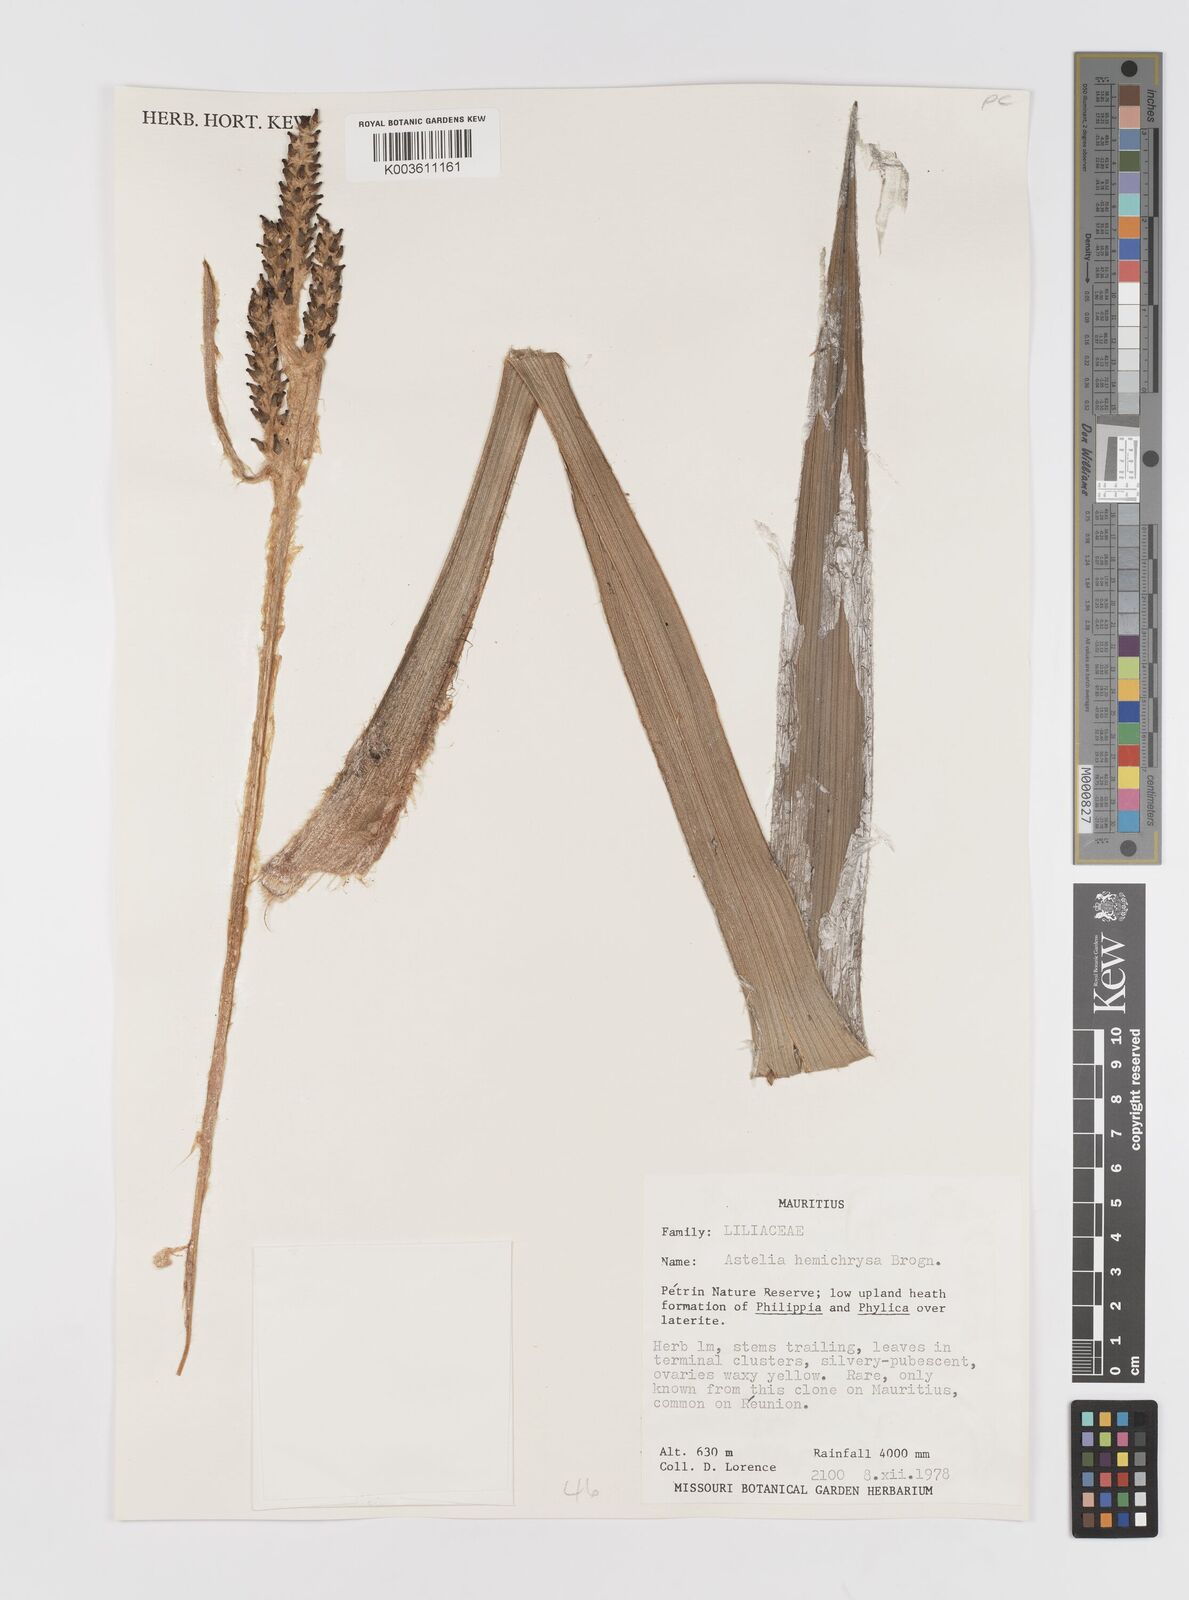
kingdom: Plantae
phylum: Tracheophyta
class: Liliopsida
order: Asparagales
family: Asteliaceae
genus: Astelia
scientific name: Astelia hemichrysa
